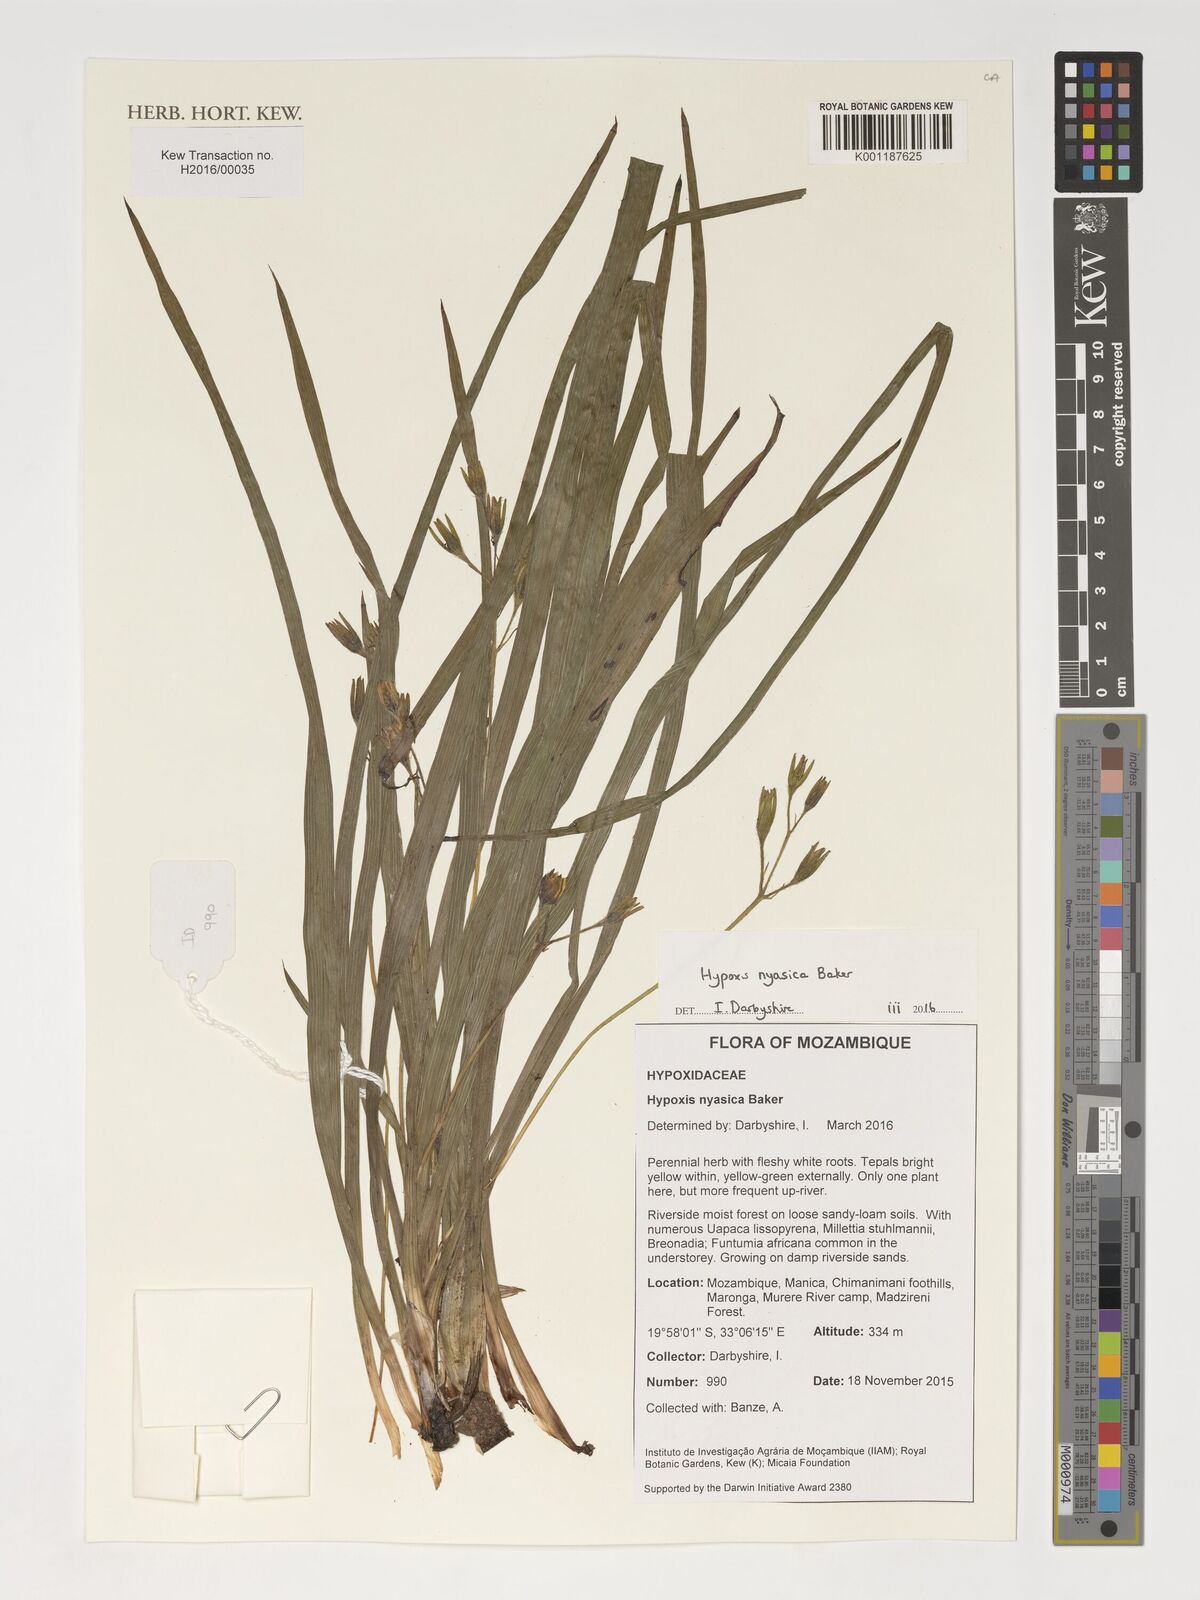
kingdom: Plantae
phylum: Tracheophyta
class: Liliopsida
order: Asparagales
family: Hypoxidaceae
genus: Hypoxis
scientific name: Hypoxis nyasica
